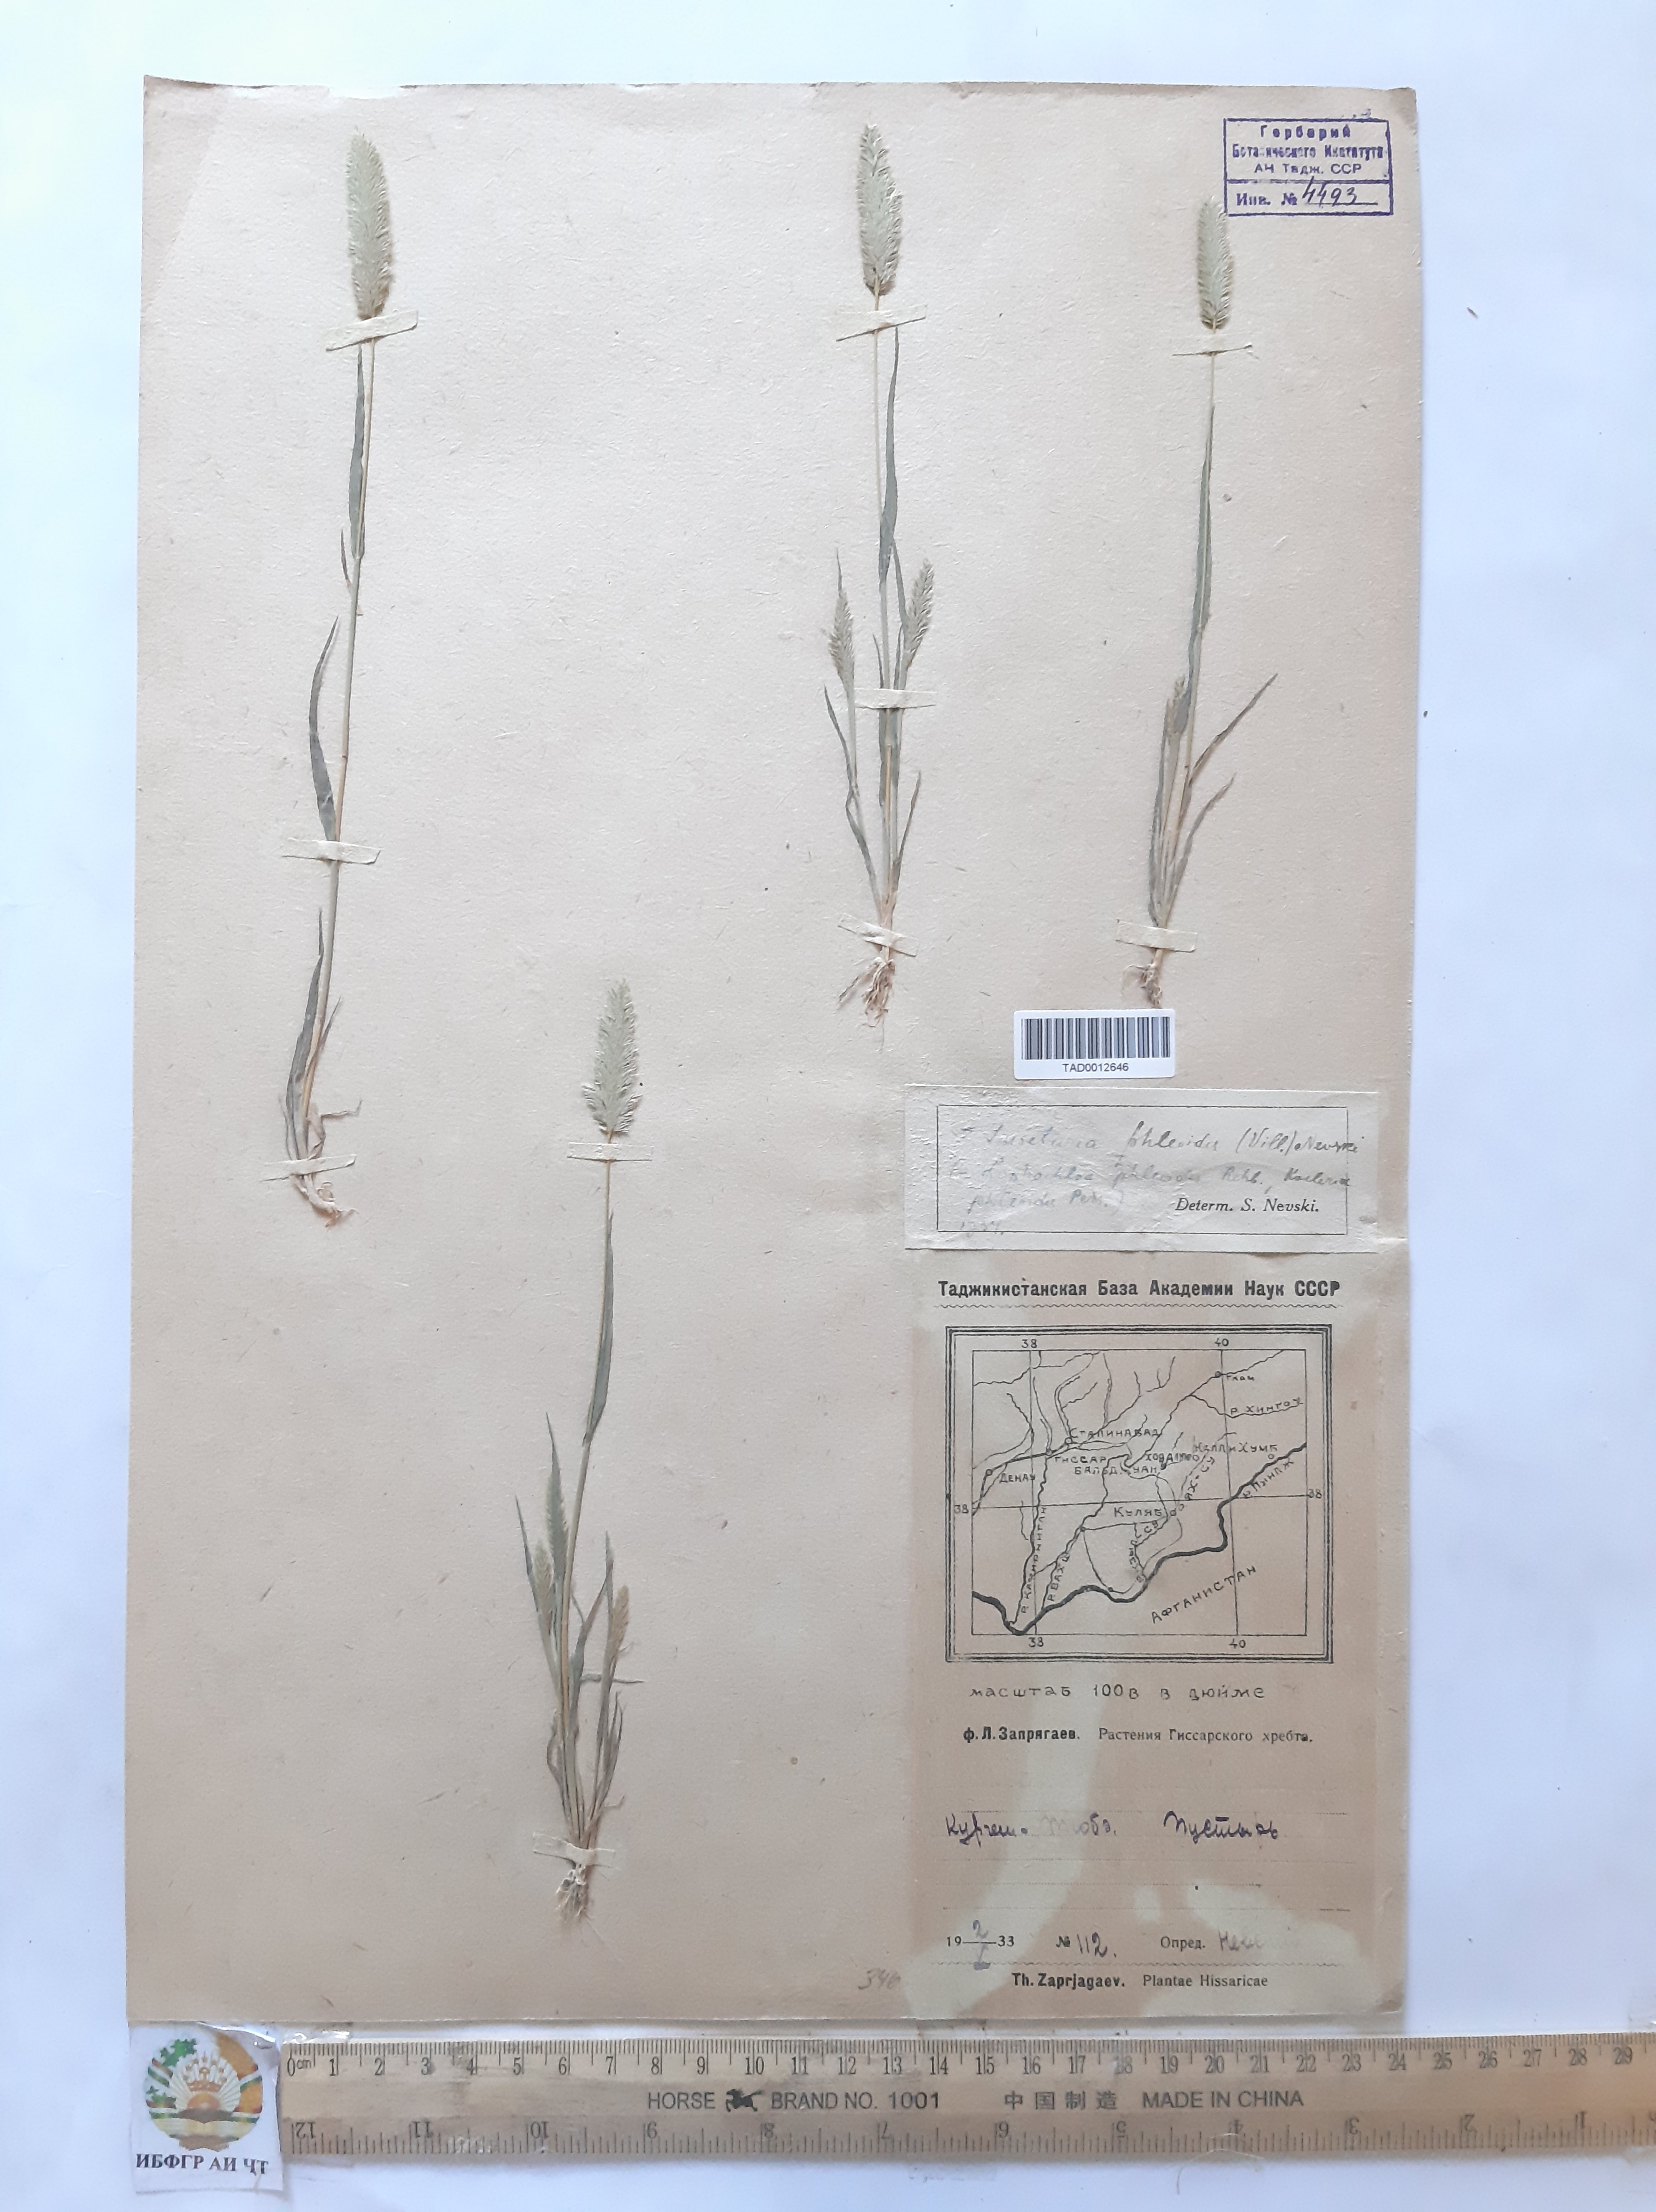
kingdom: Plantae
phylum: Tracheophyta
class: Liliopsida
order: Poales
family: Poaceae
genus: Rostraria
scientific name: Rostraria cristata
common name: Mediterranean hair-grass
